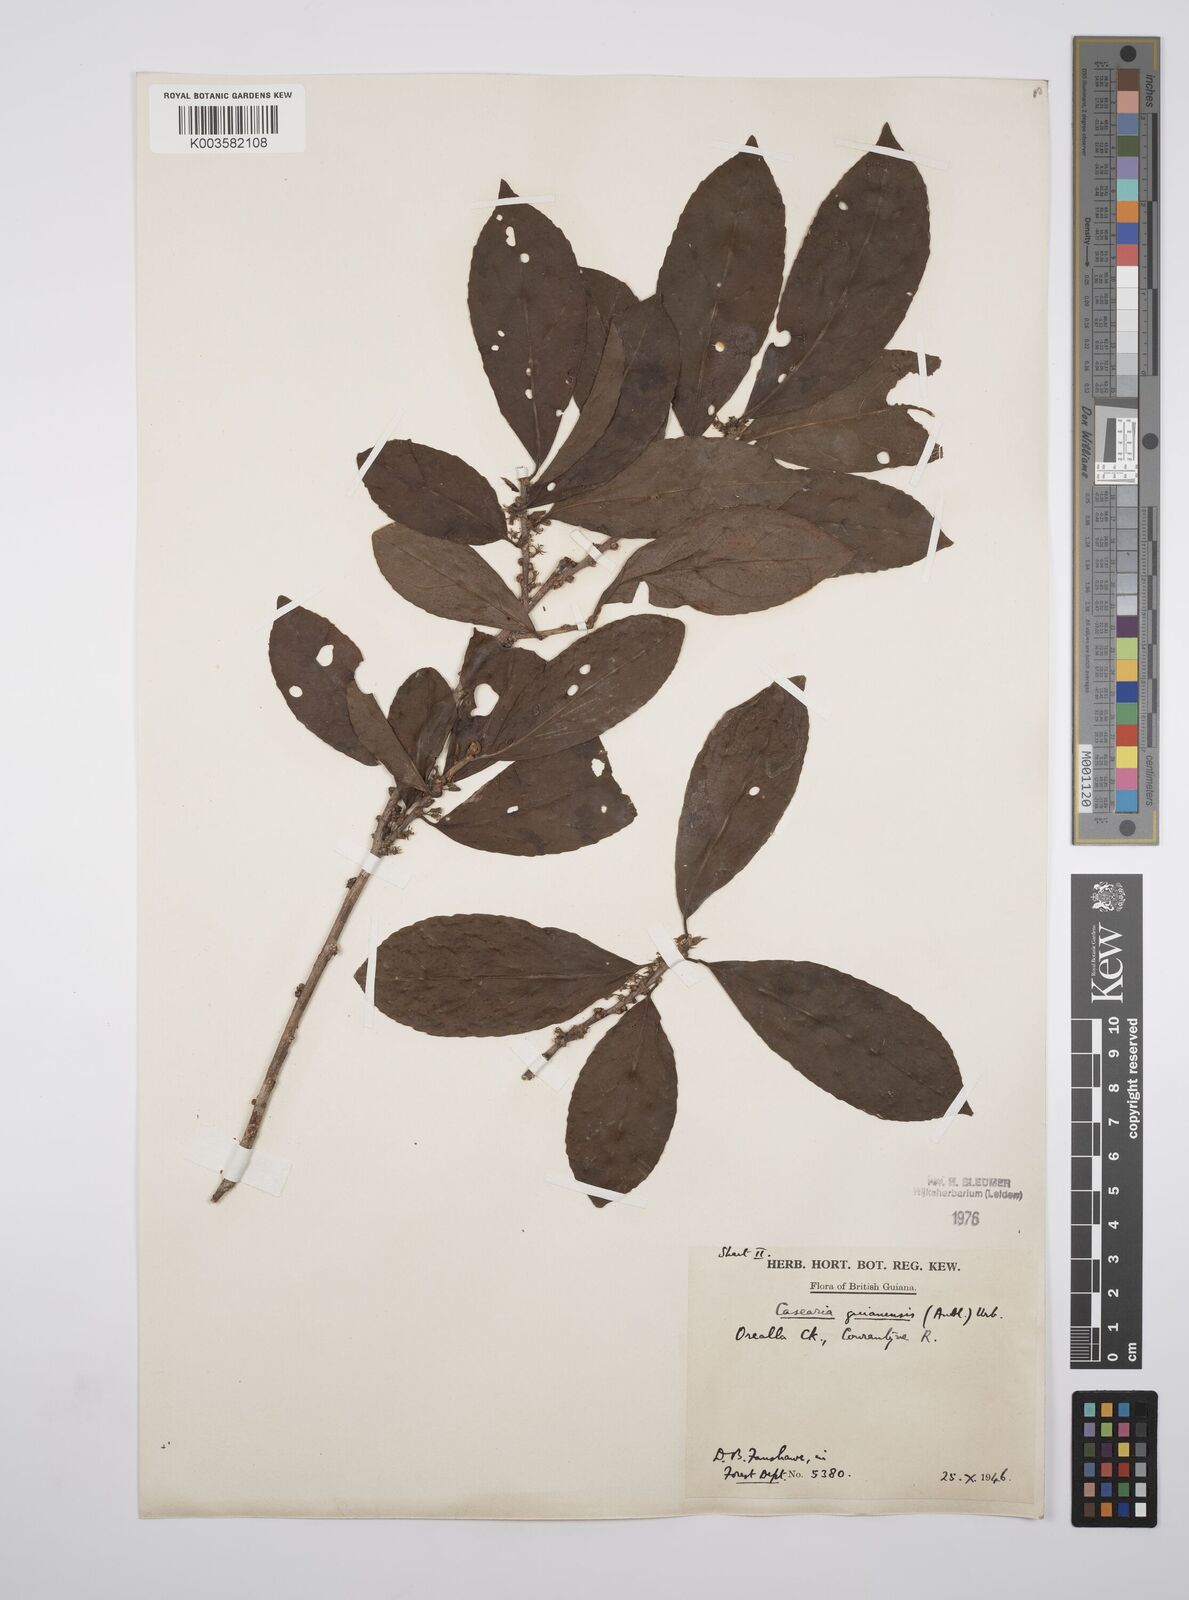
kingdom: Plantae
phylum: Tracheophyta
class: Magnoliopsida
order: Malpighiales
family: Salicaceae
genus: Casearia
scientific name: Casearia guianensis
